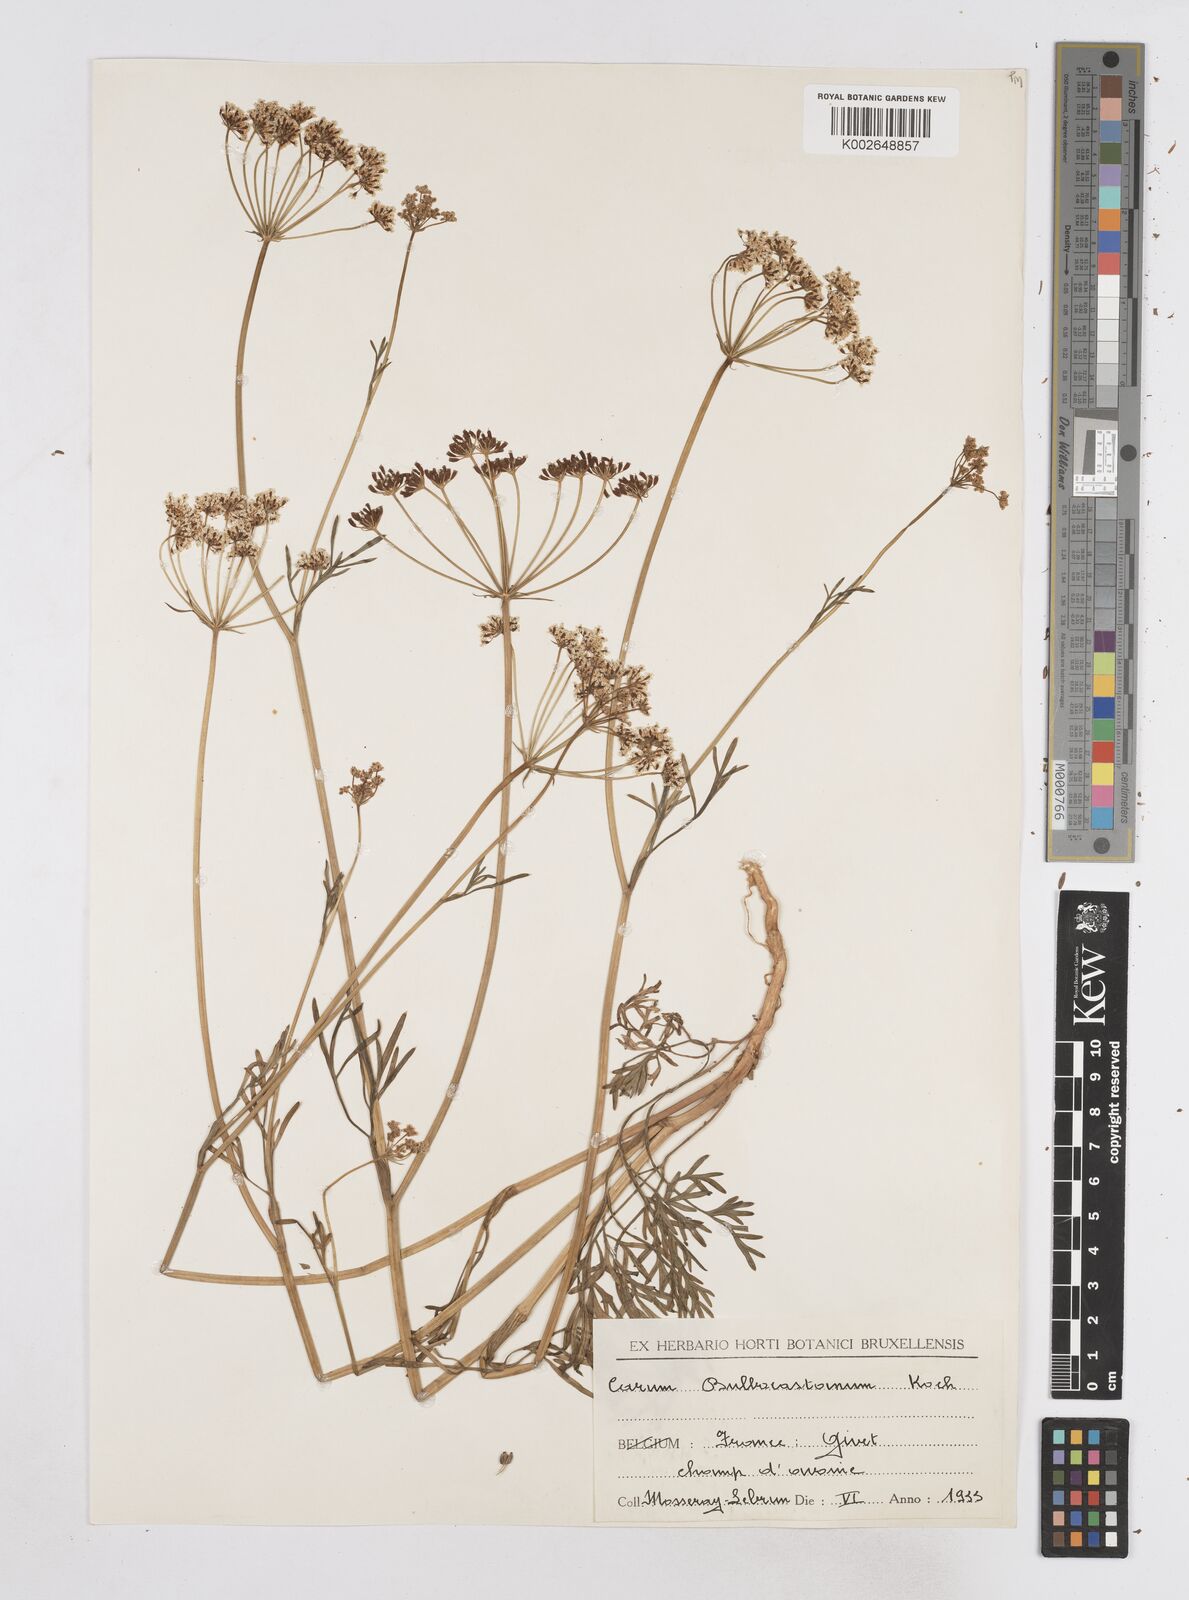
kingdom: Plantae
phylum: Tracheophyta
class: Magnoliopsida
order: Apiales
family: Apiaceae
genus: Bunium
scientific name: Bunium bulbocastanum
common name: Great pignut
